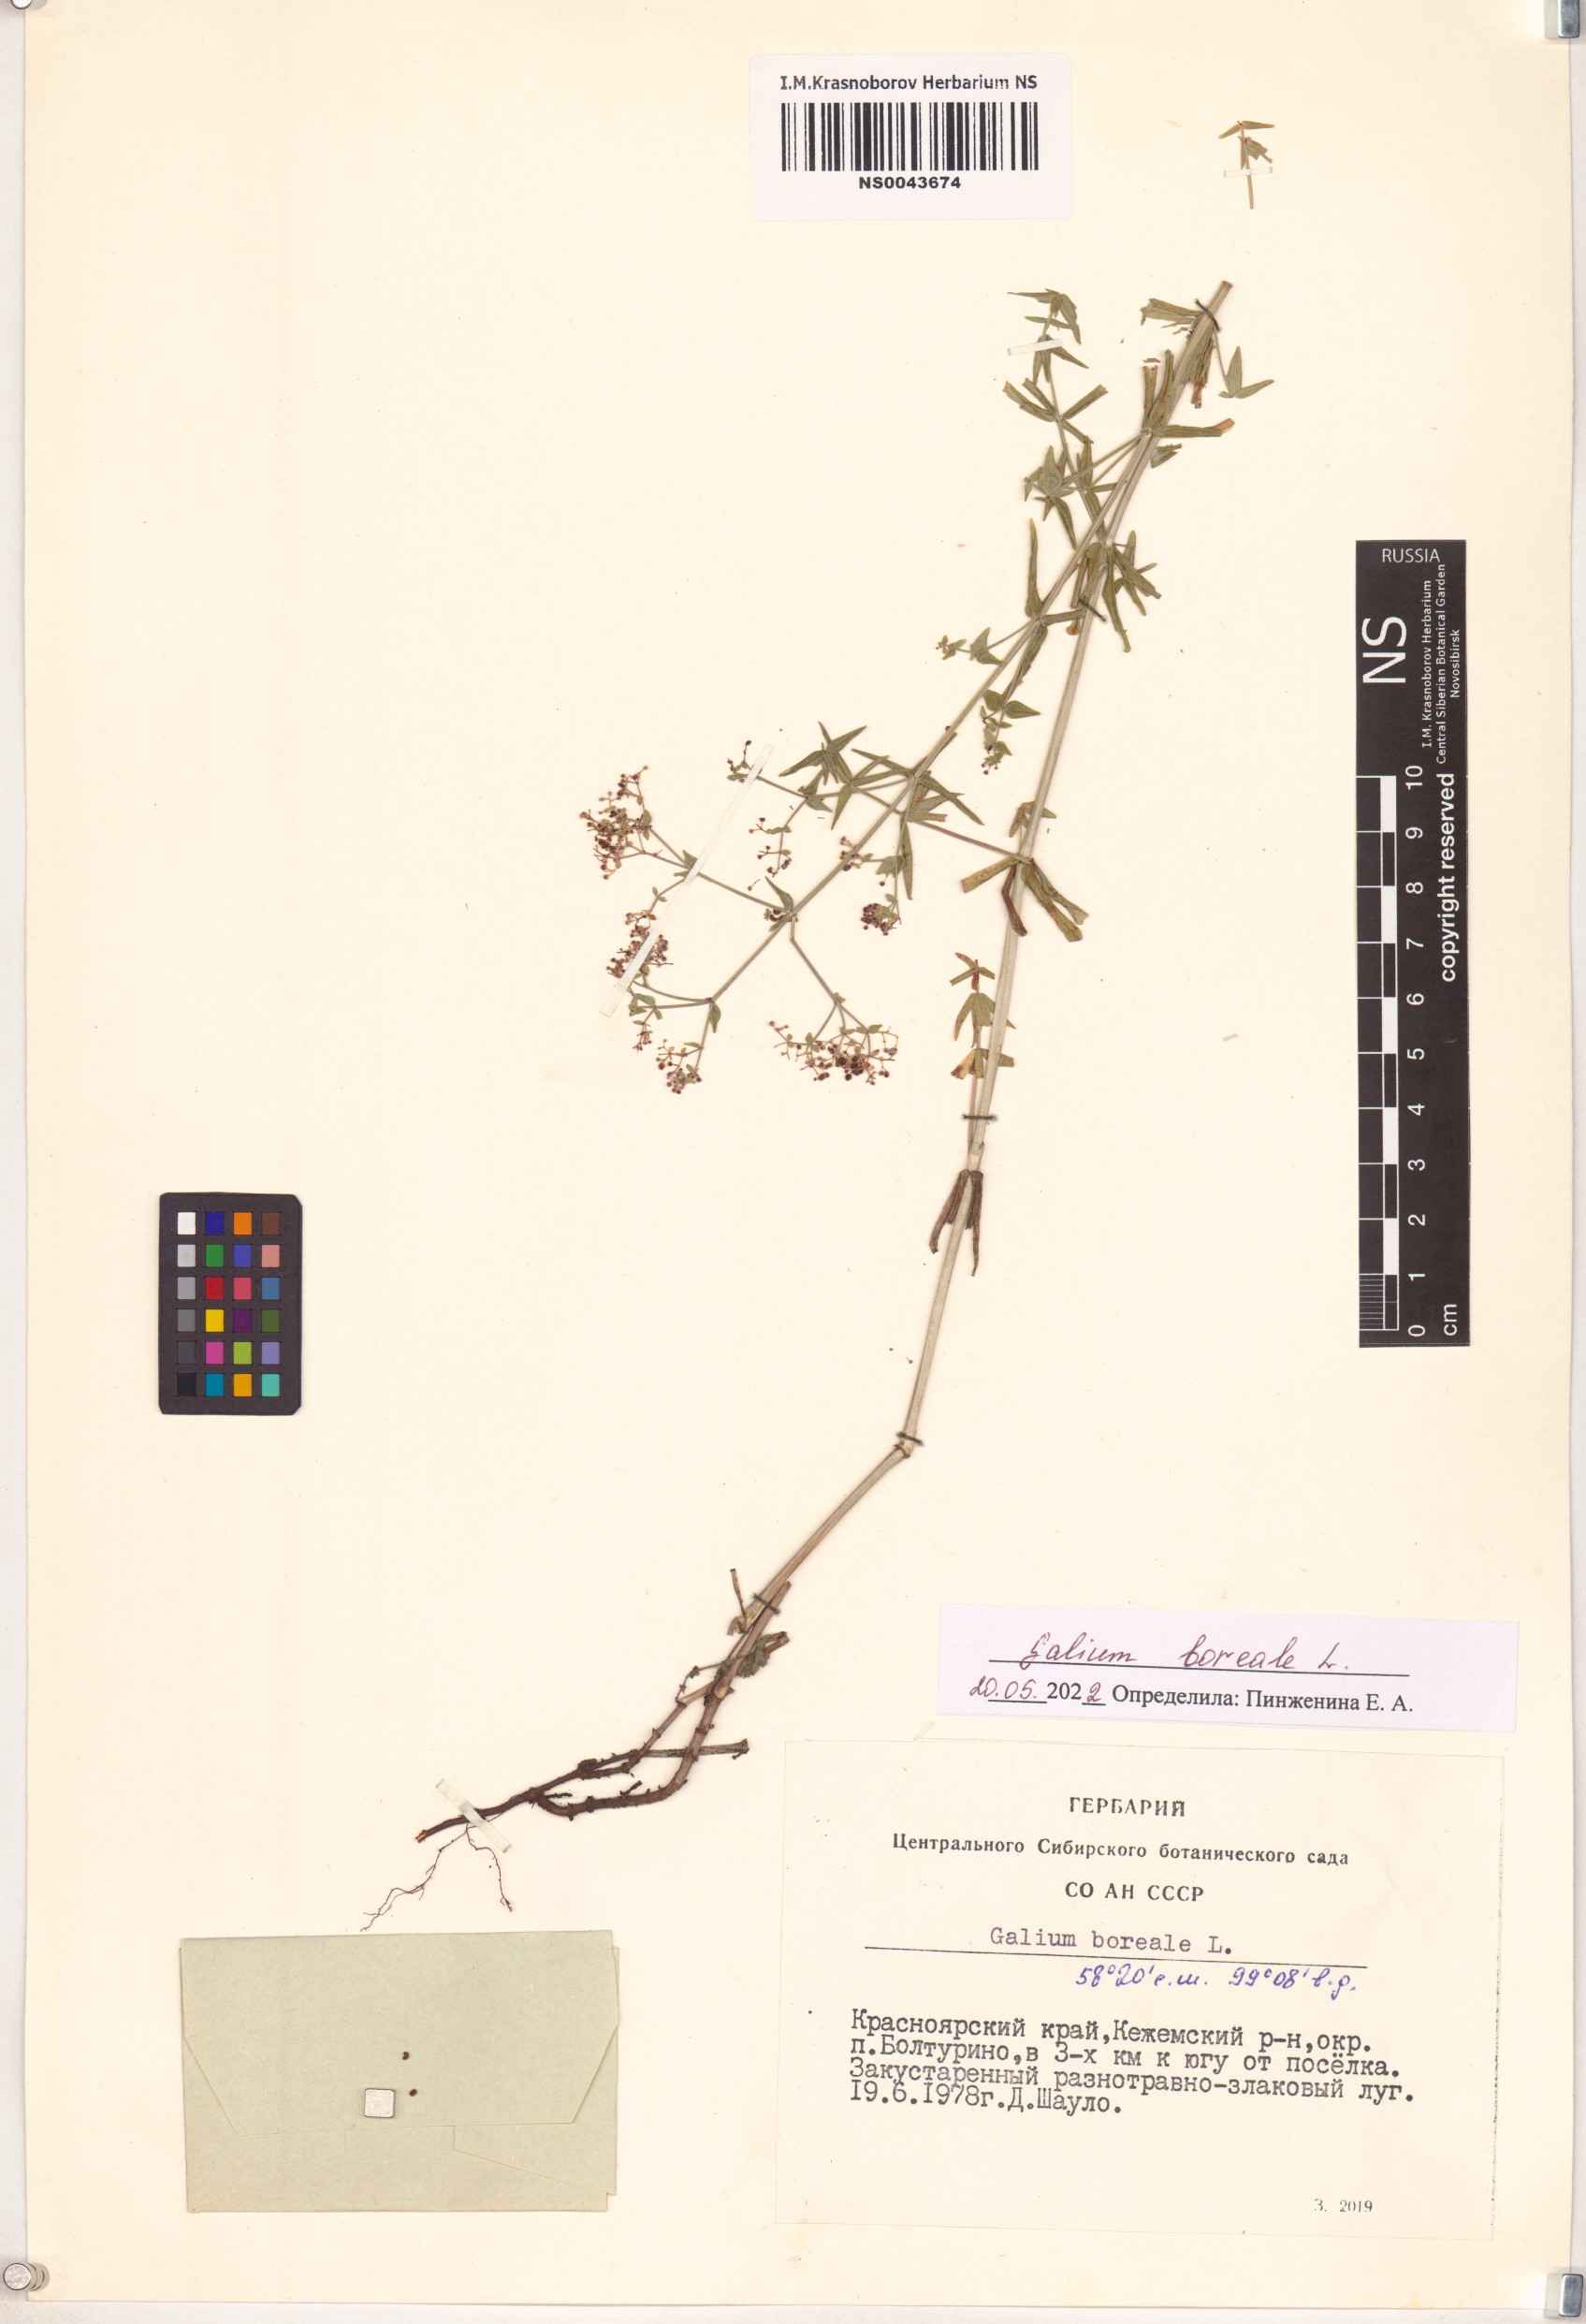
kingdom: Plantae
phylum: Tracheophyta
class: Magnoliopsida
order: Gentianales
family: Rubiaceae
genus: Galium
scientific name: Galium boreale
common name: Northern bedstraw
